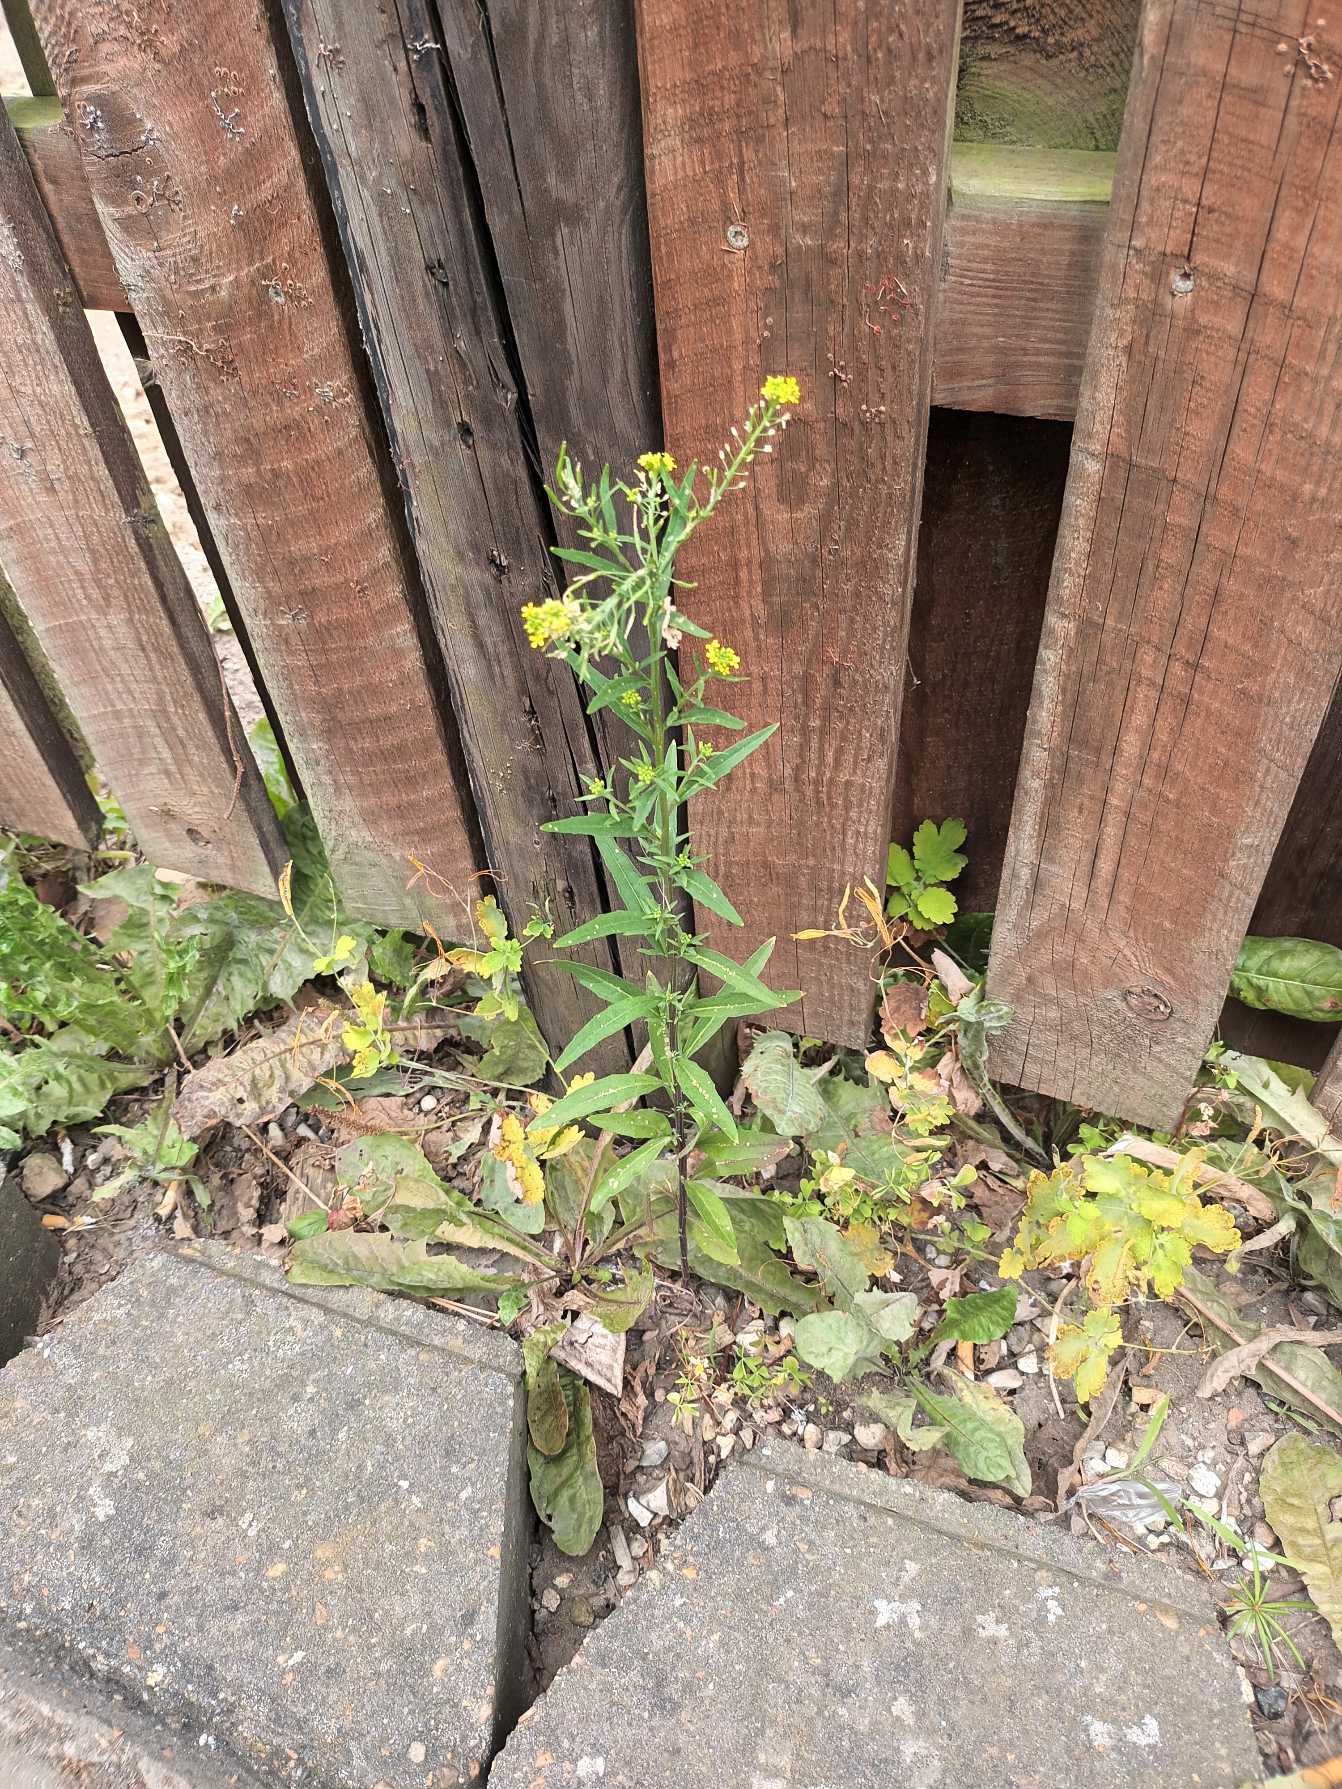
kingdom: Plantae
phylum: Tracheophyta
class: Magnoliopsida
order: Brassicales
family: Brassicaceae
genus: Erysimum
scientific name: Erysimum cheiranthoides
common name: Gyldenlak-hjørneklap
